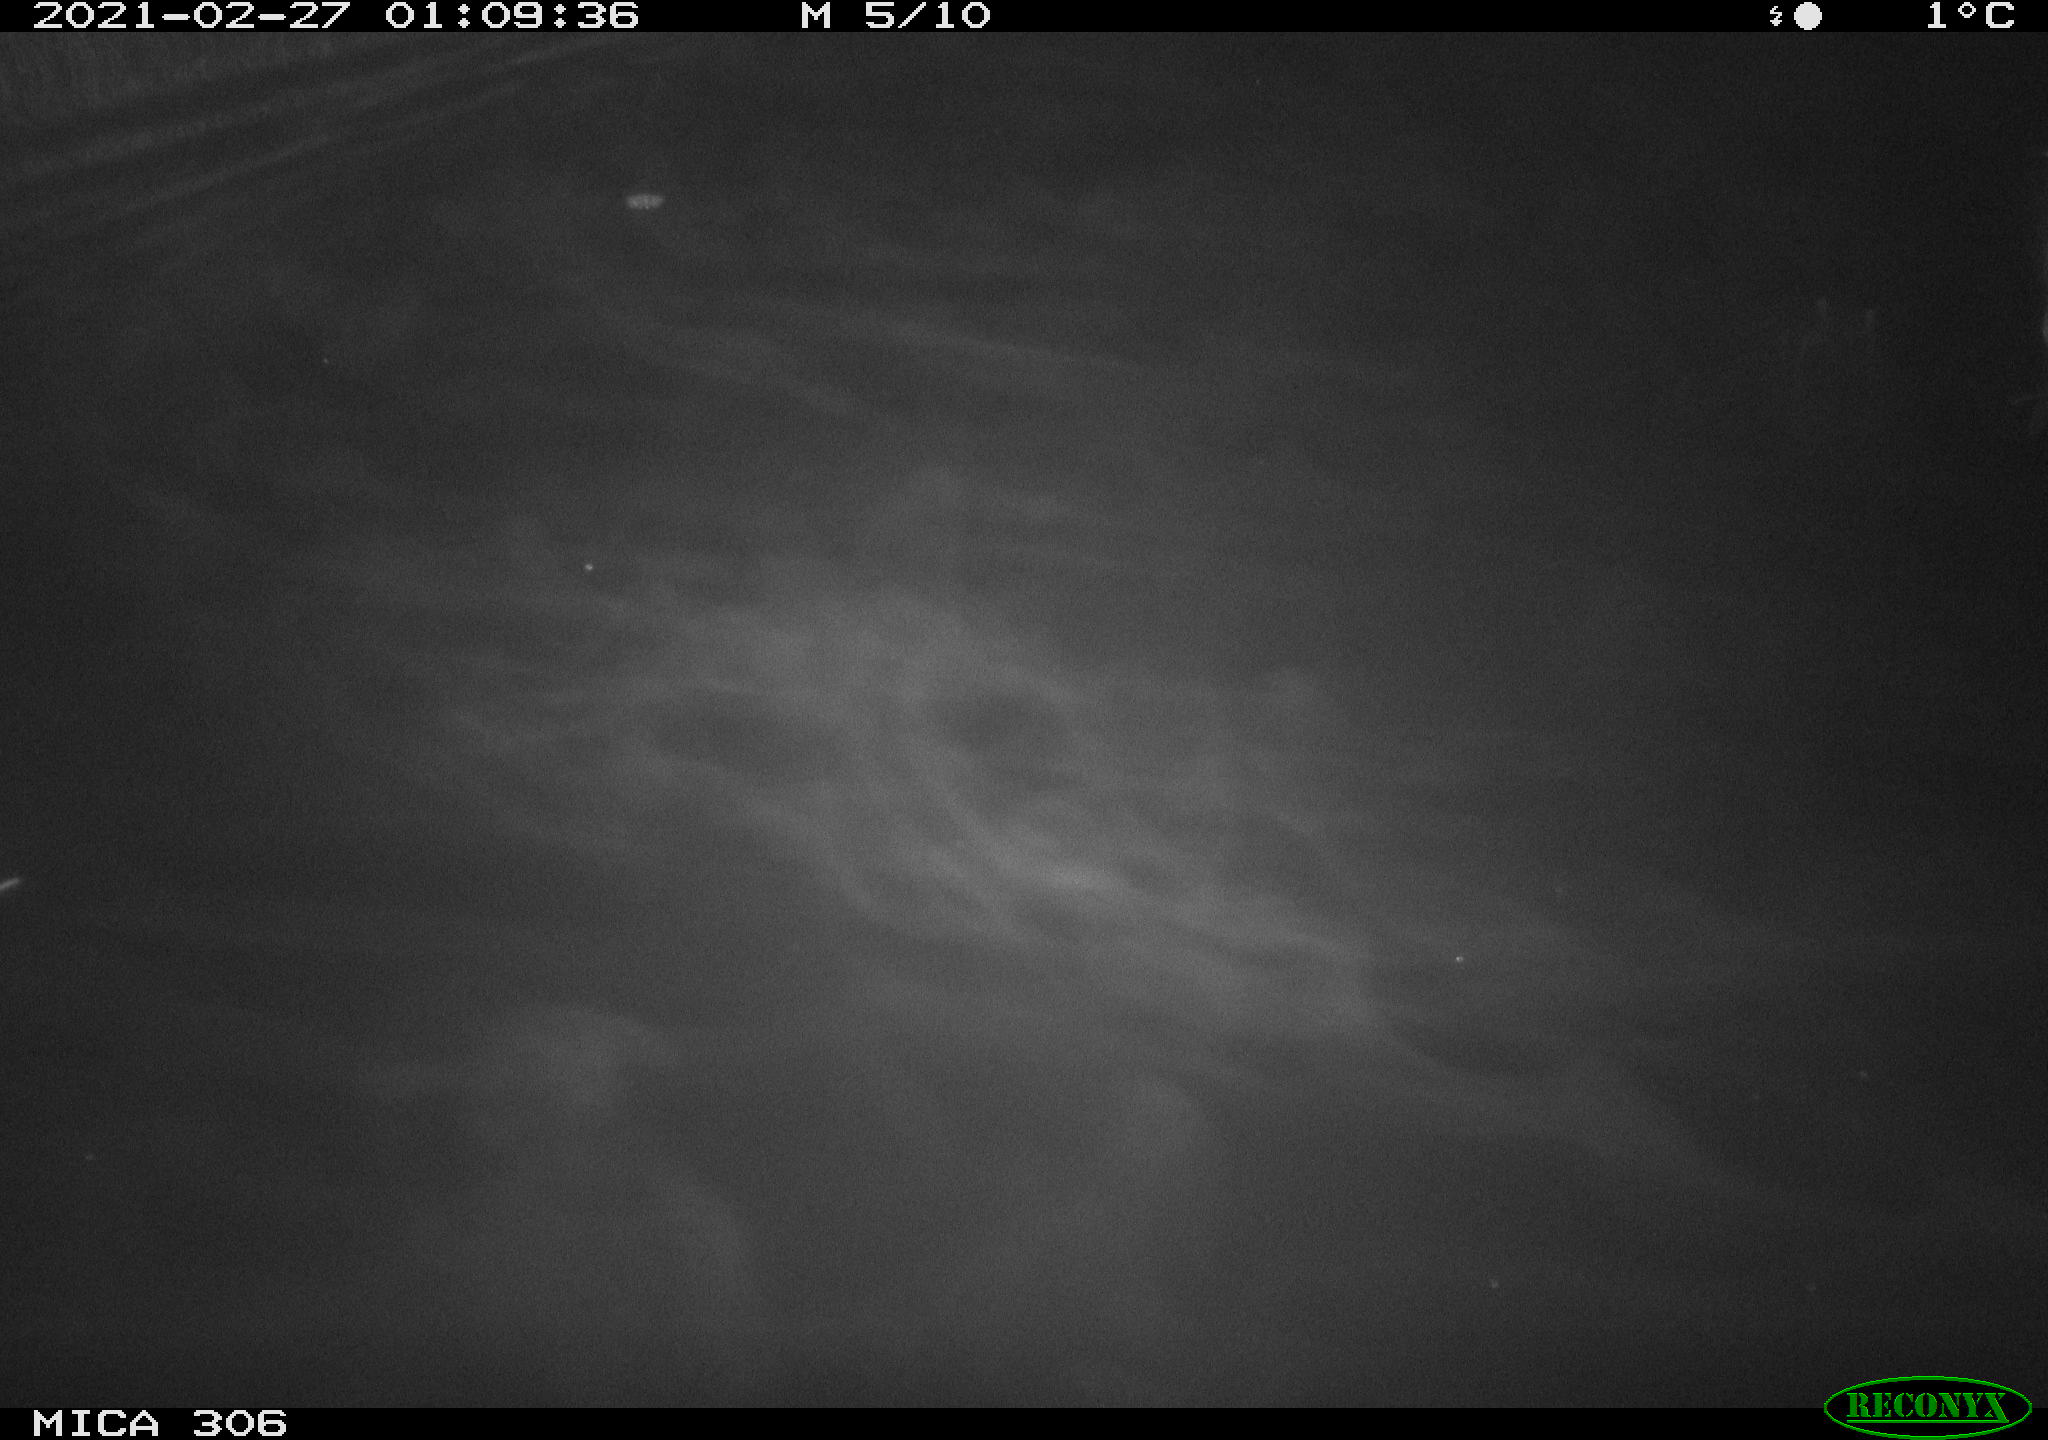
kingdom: Animalia
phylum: Chordata
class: Mammalia
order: Rodentia
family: Cricetidae
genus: Ondatra
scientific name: Ondatra zibethicus
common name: Muskrat
